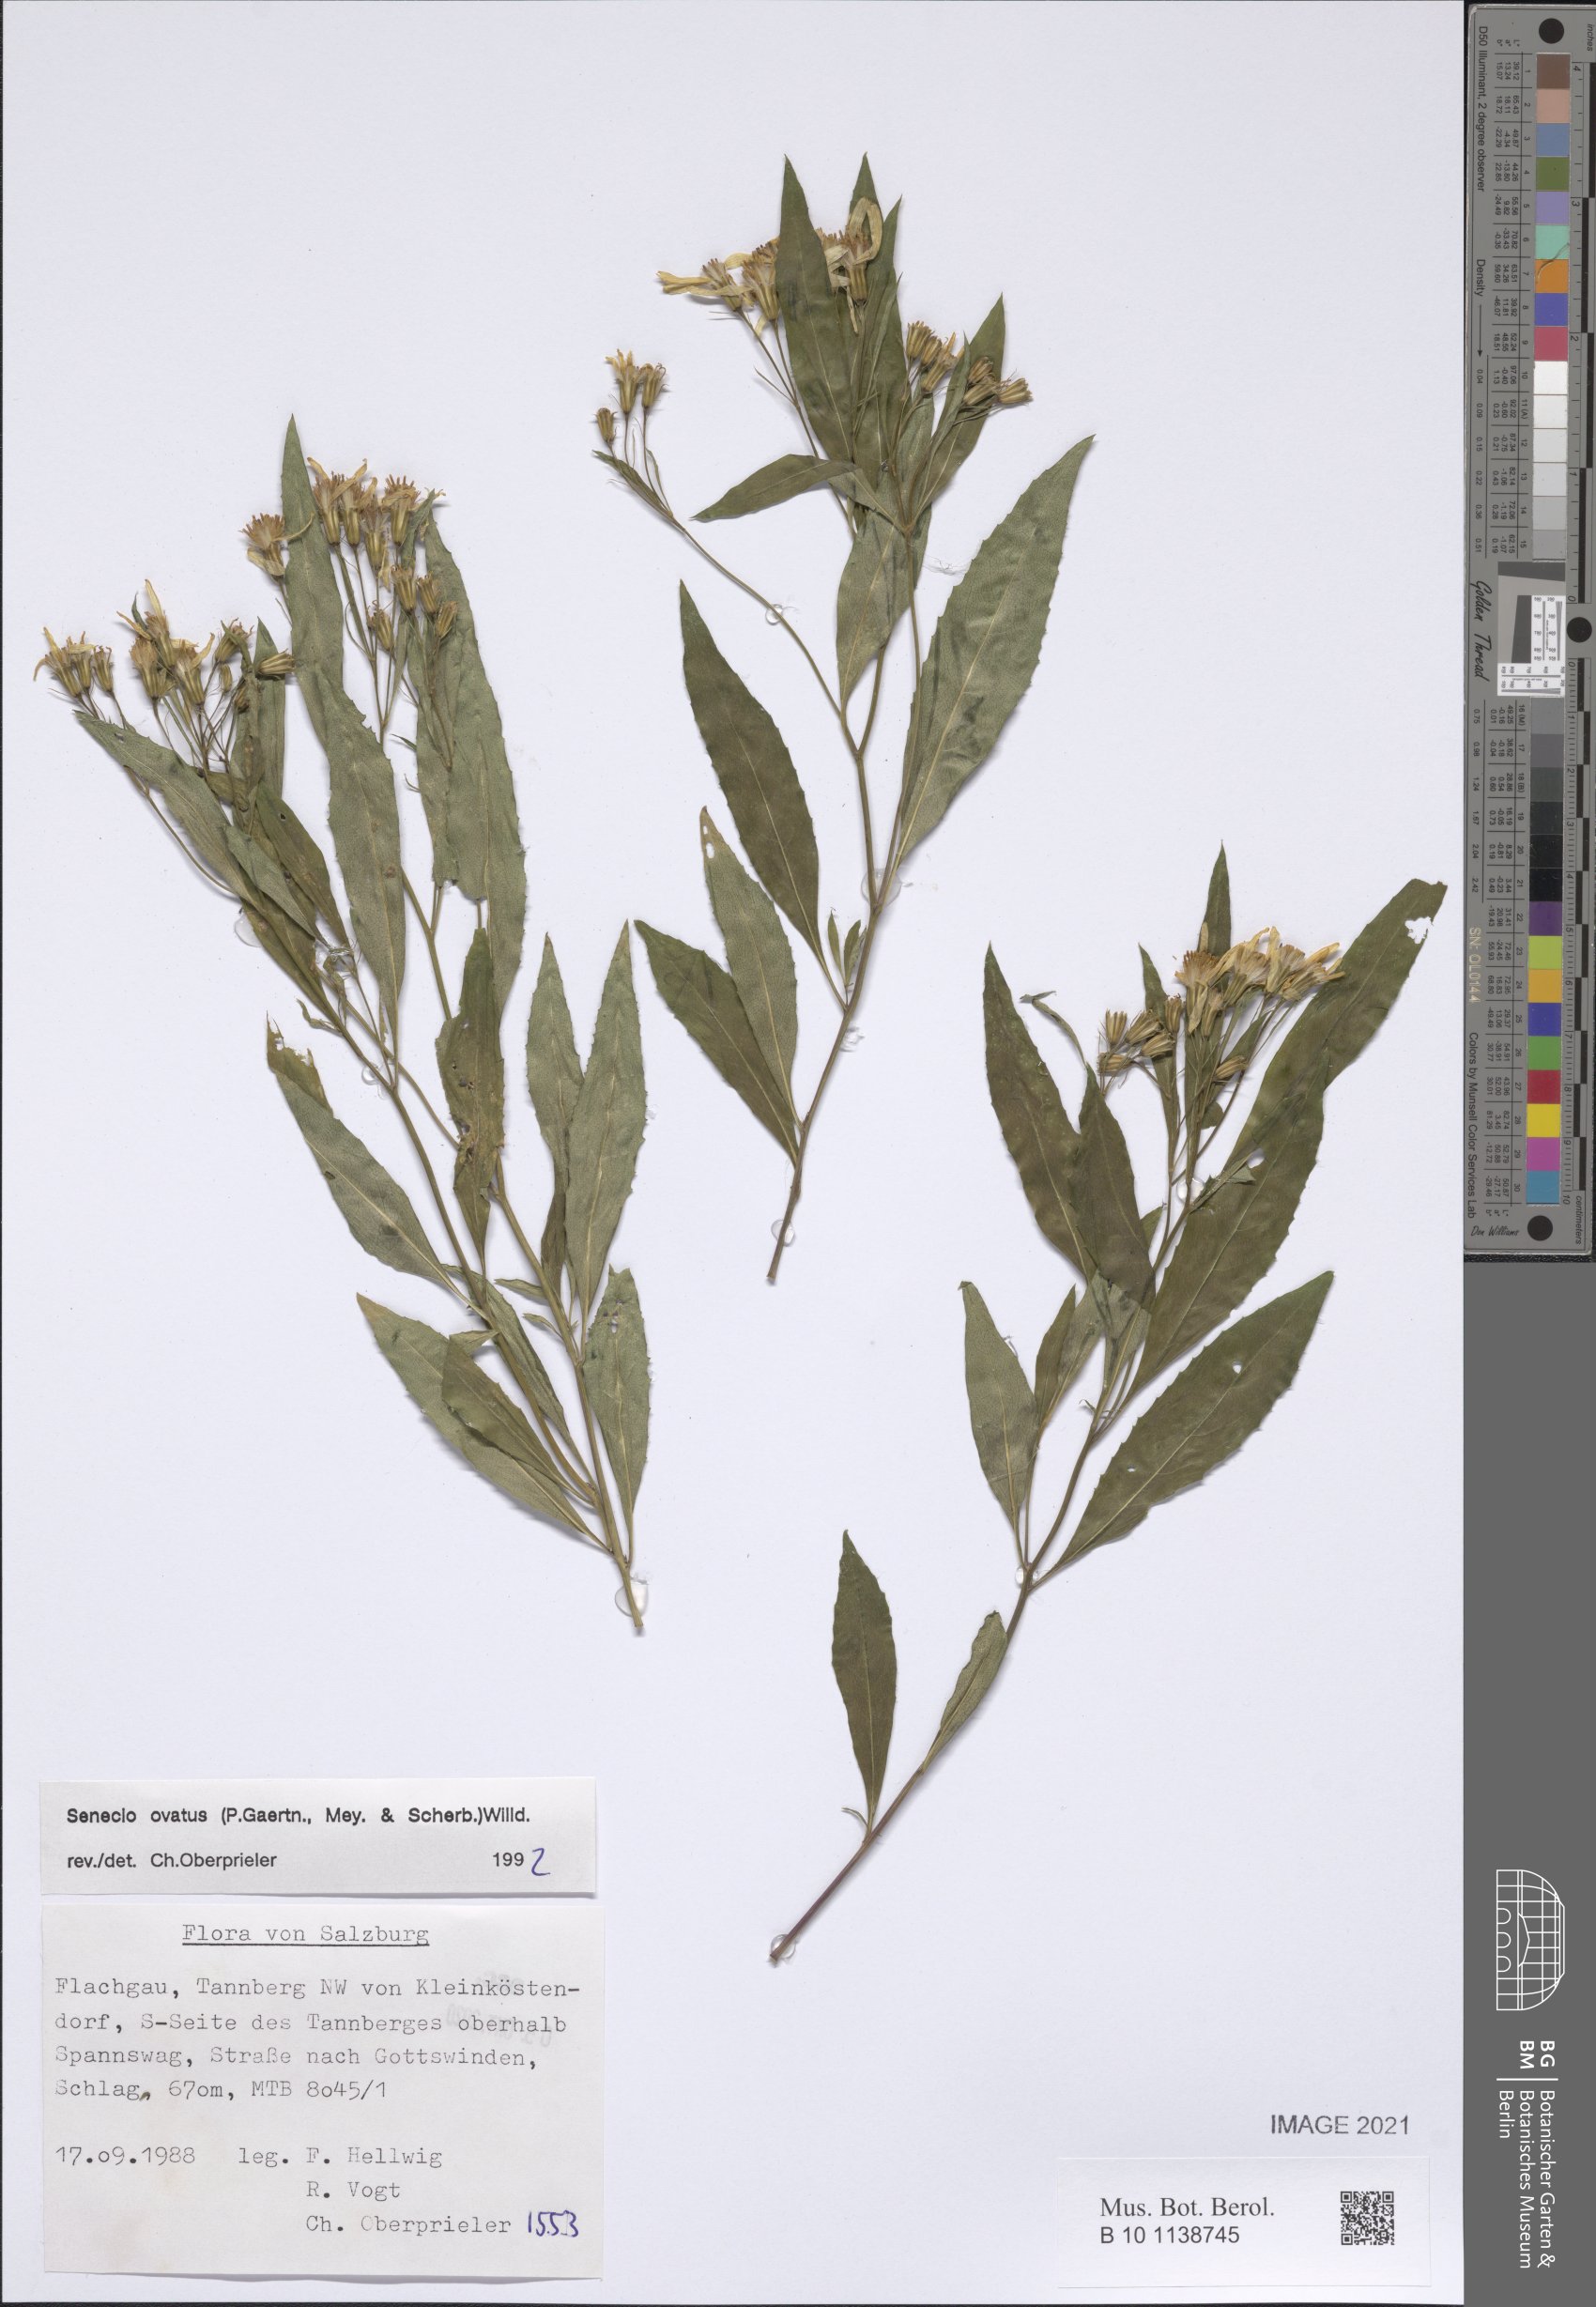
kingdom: Plantae
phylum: Tracheophyta
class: Magnoliopsida
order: Asterales
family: Asteraceae
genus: Senecio
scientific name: Senecio ovatus
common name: Wood ragwort
